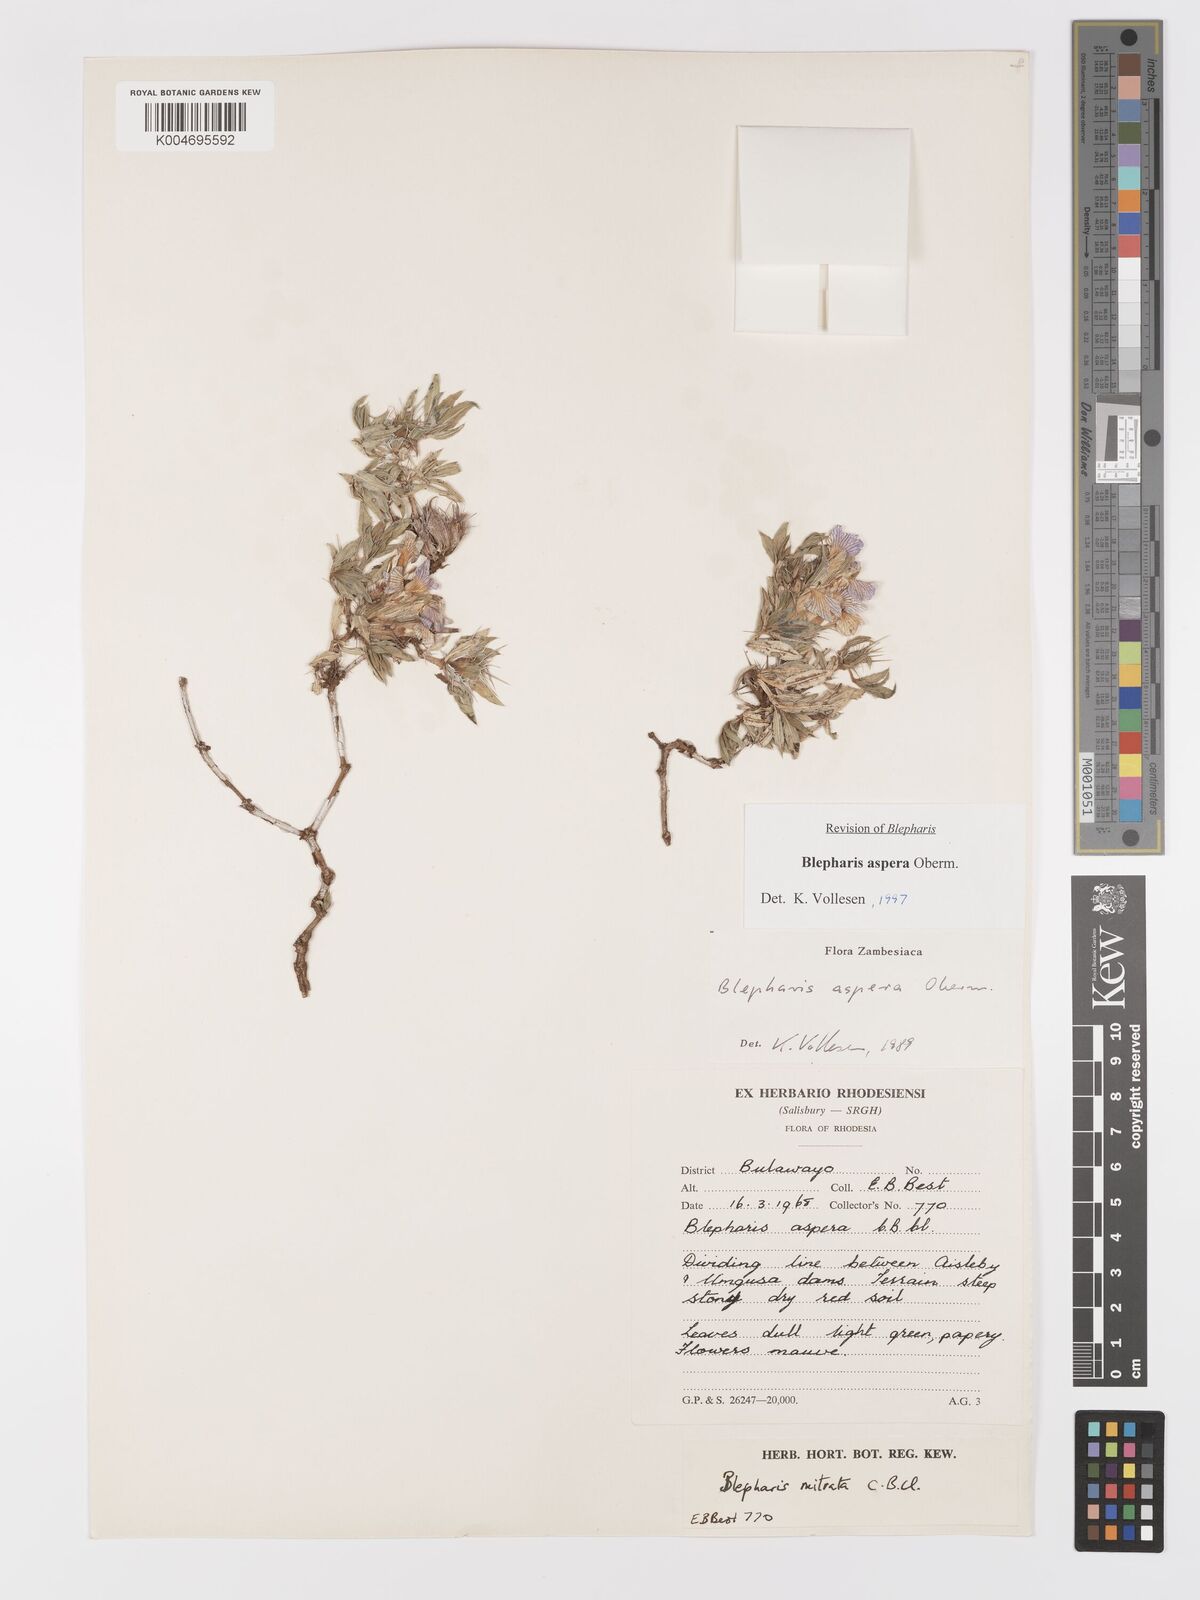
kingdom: Plantae
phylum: Tracheophyta
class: Magnoliopsida
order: Lamiales
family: Acanthaceae
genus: Blepharis
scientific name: Blepharis aspera
